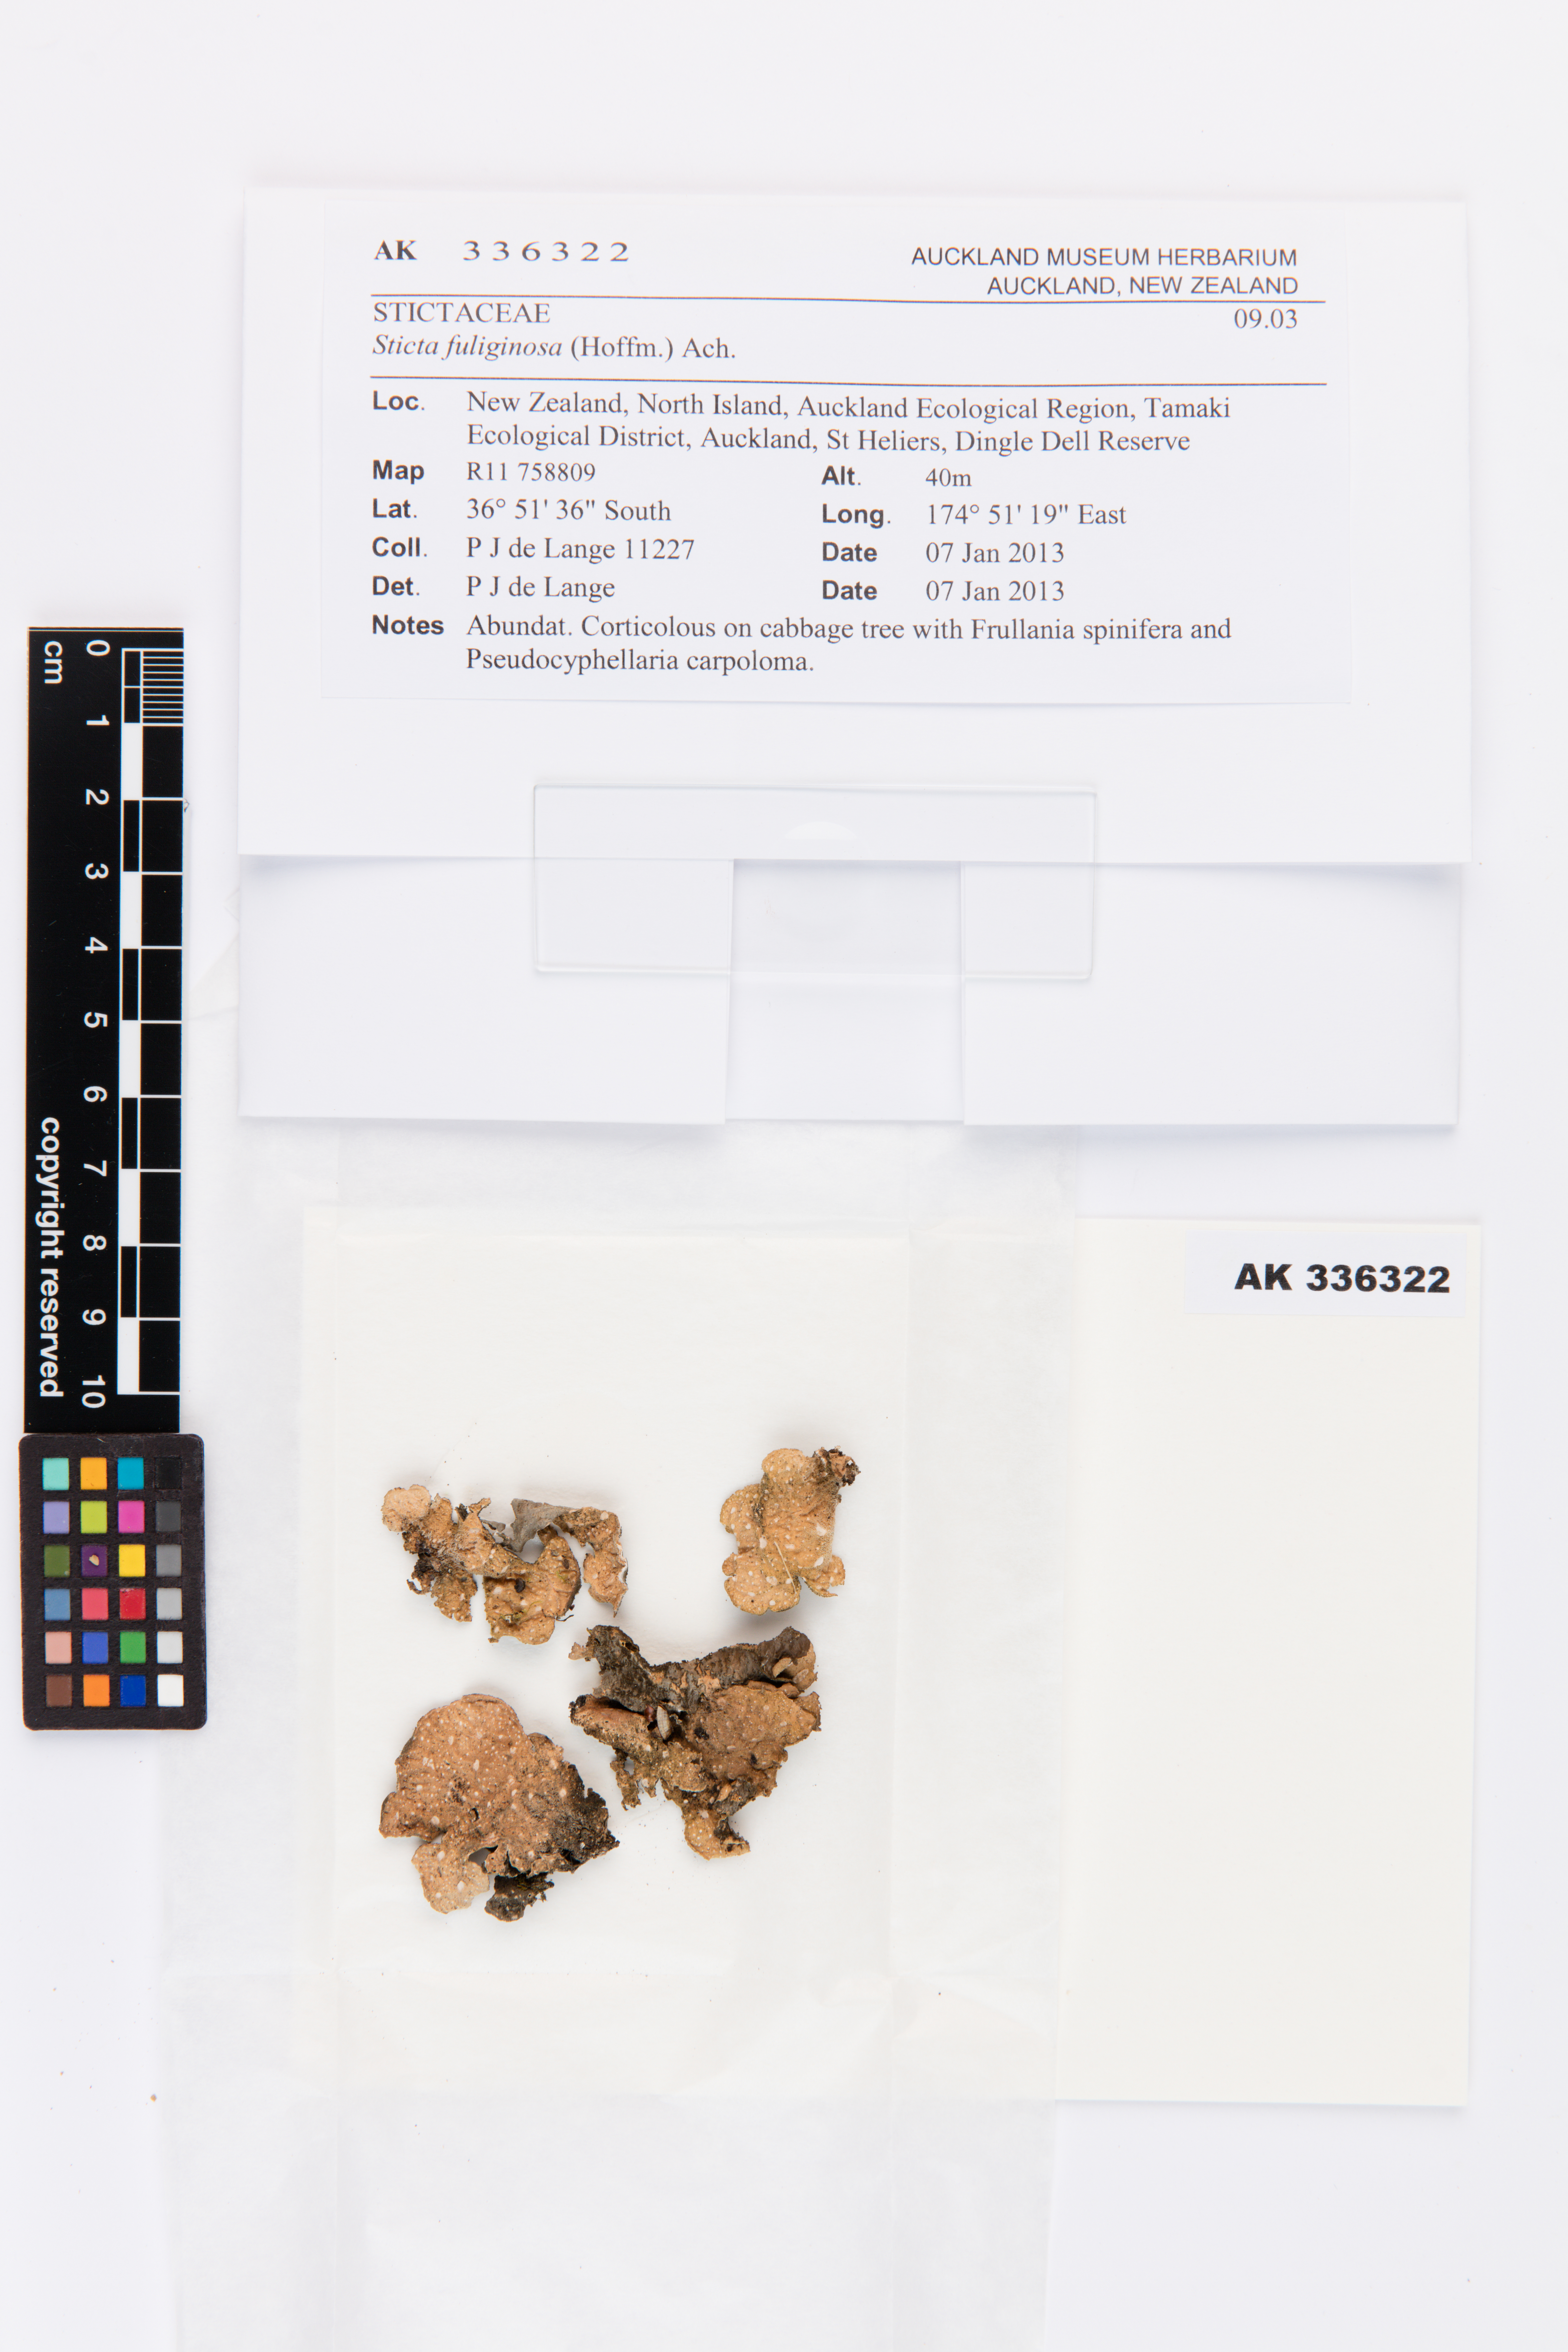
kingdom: Fungi
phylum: Ascomycota
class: Lecanoromycetes
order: Peltigerales
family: Lobariaceae
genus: Sticta
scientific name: Sticta fuliginosa
